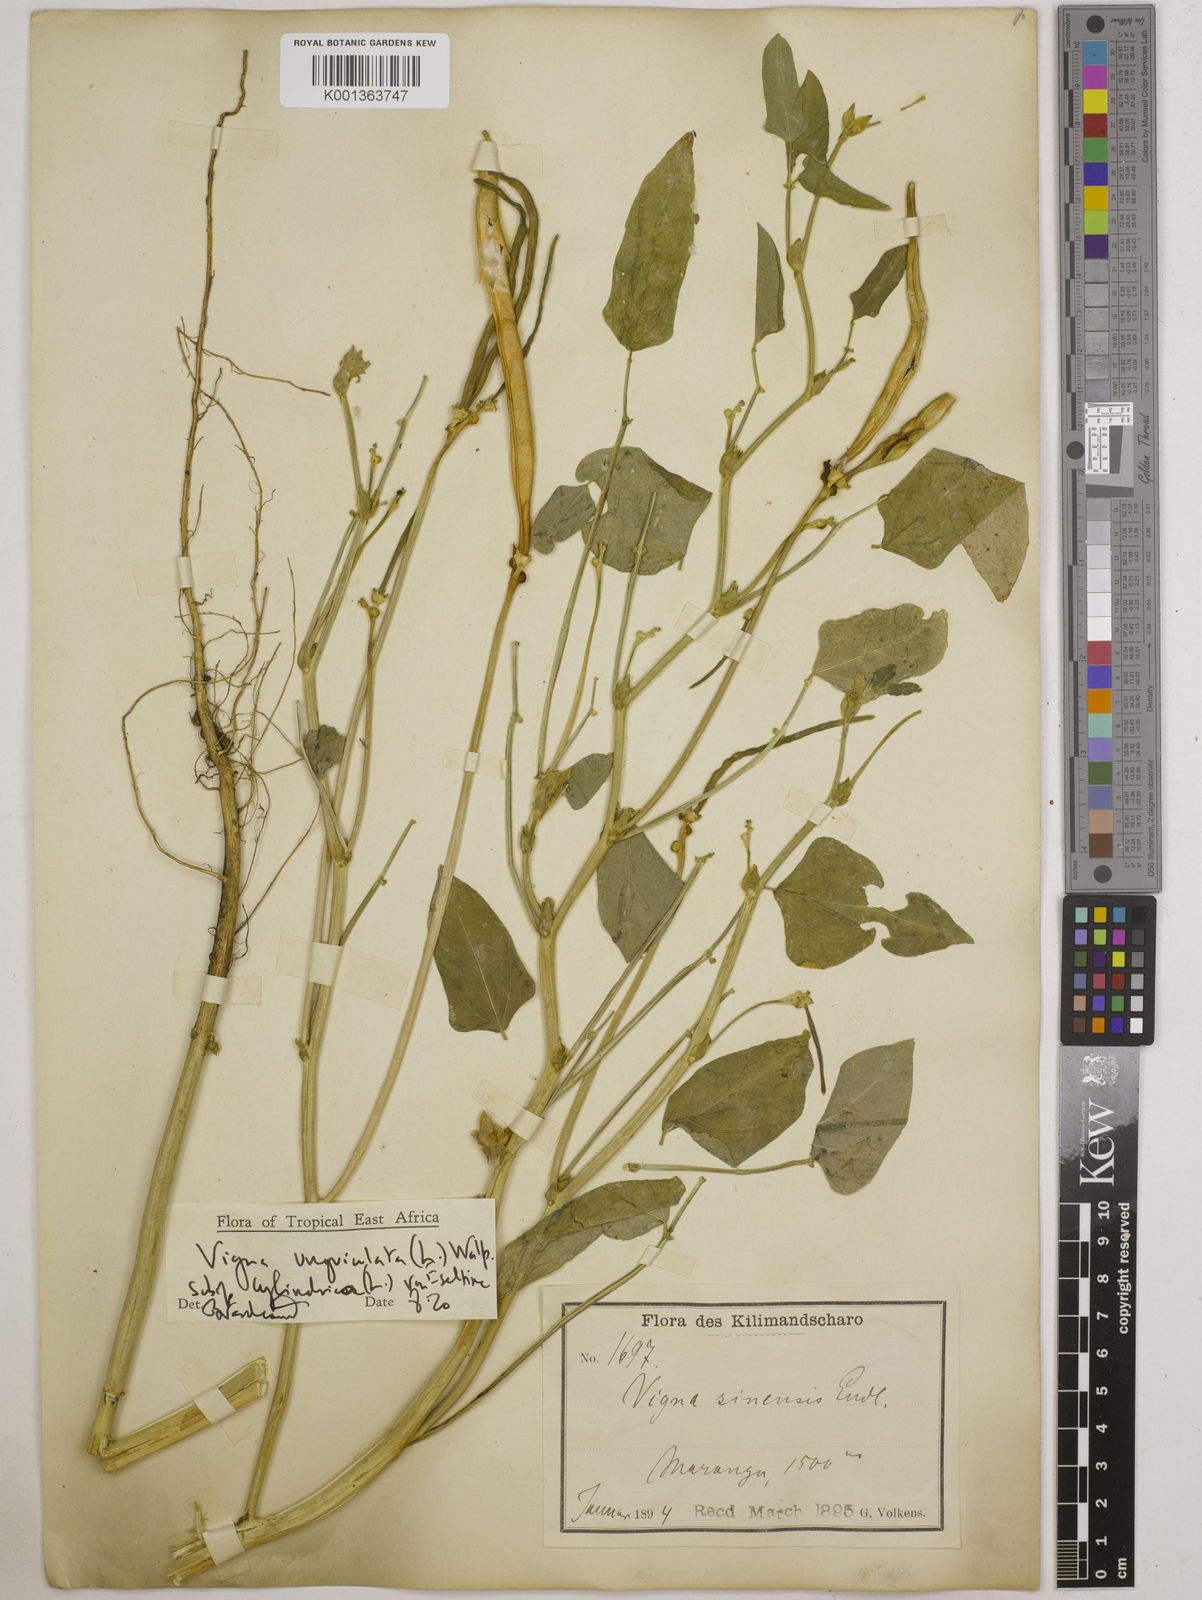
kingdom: Plantae
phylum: Tracheophyta
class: Magnoliopsida
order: Fabales
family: Fabaceae
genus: Vigna
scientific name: Vigna
